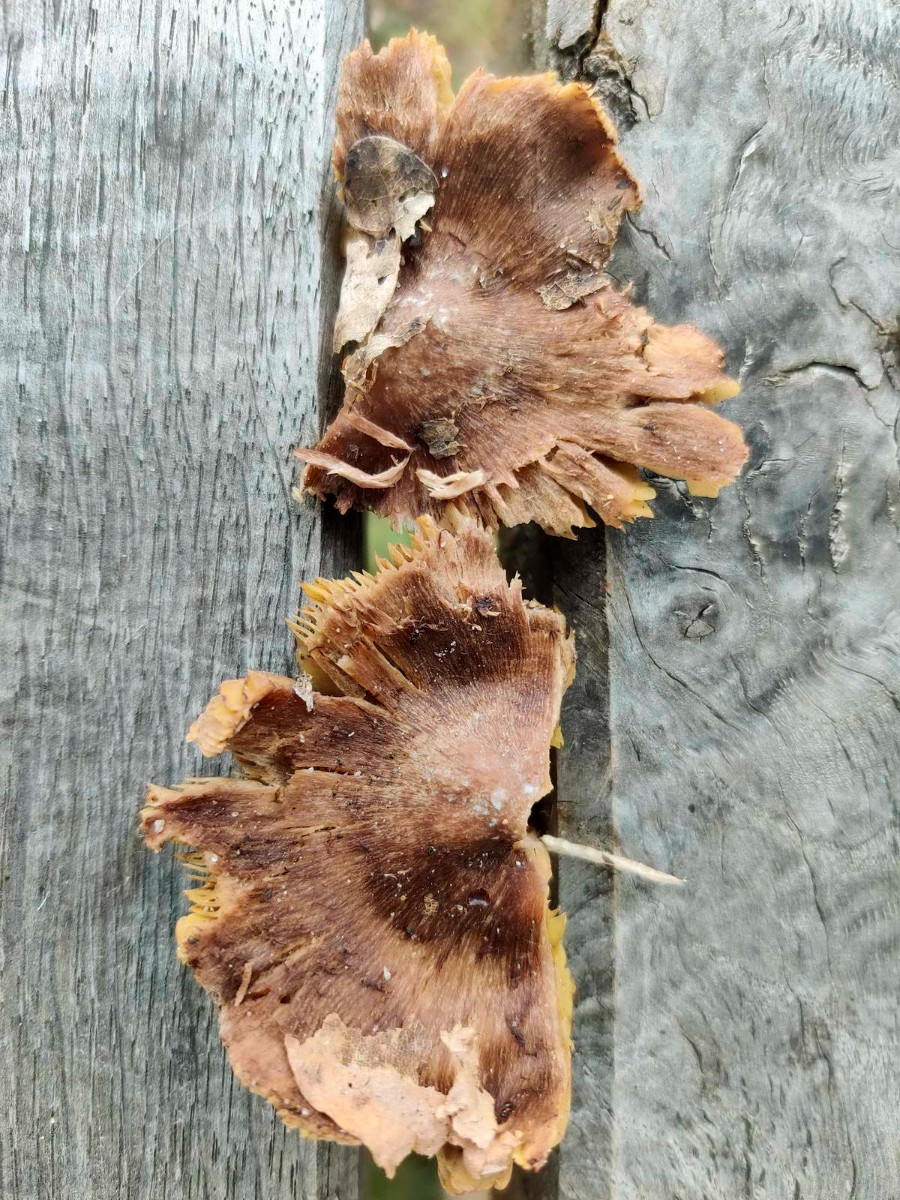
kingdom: Fungi
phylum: Basidiomycota
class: Agaricomycetes
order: Agaricales
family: Inocybaceae
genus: Inosperma
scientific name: Inosperma
